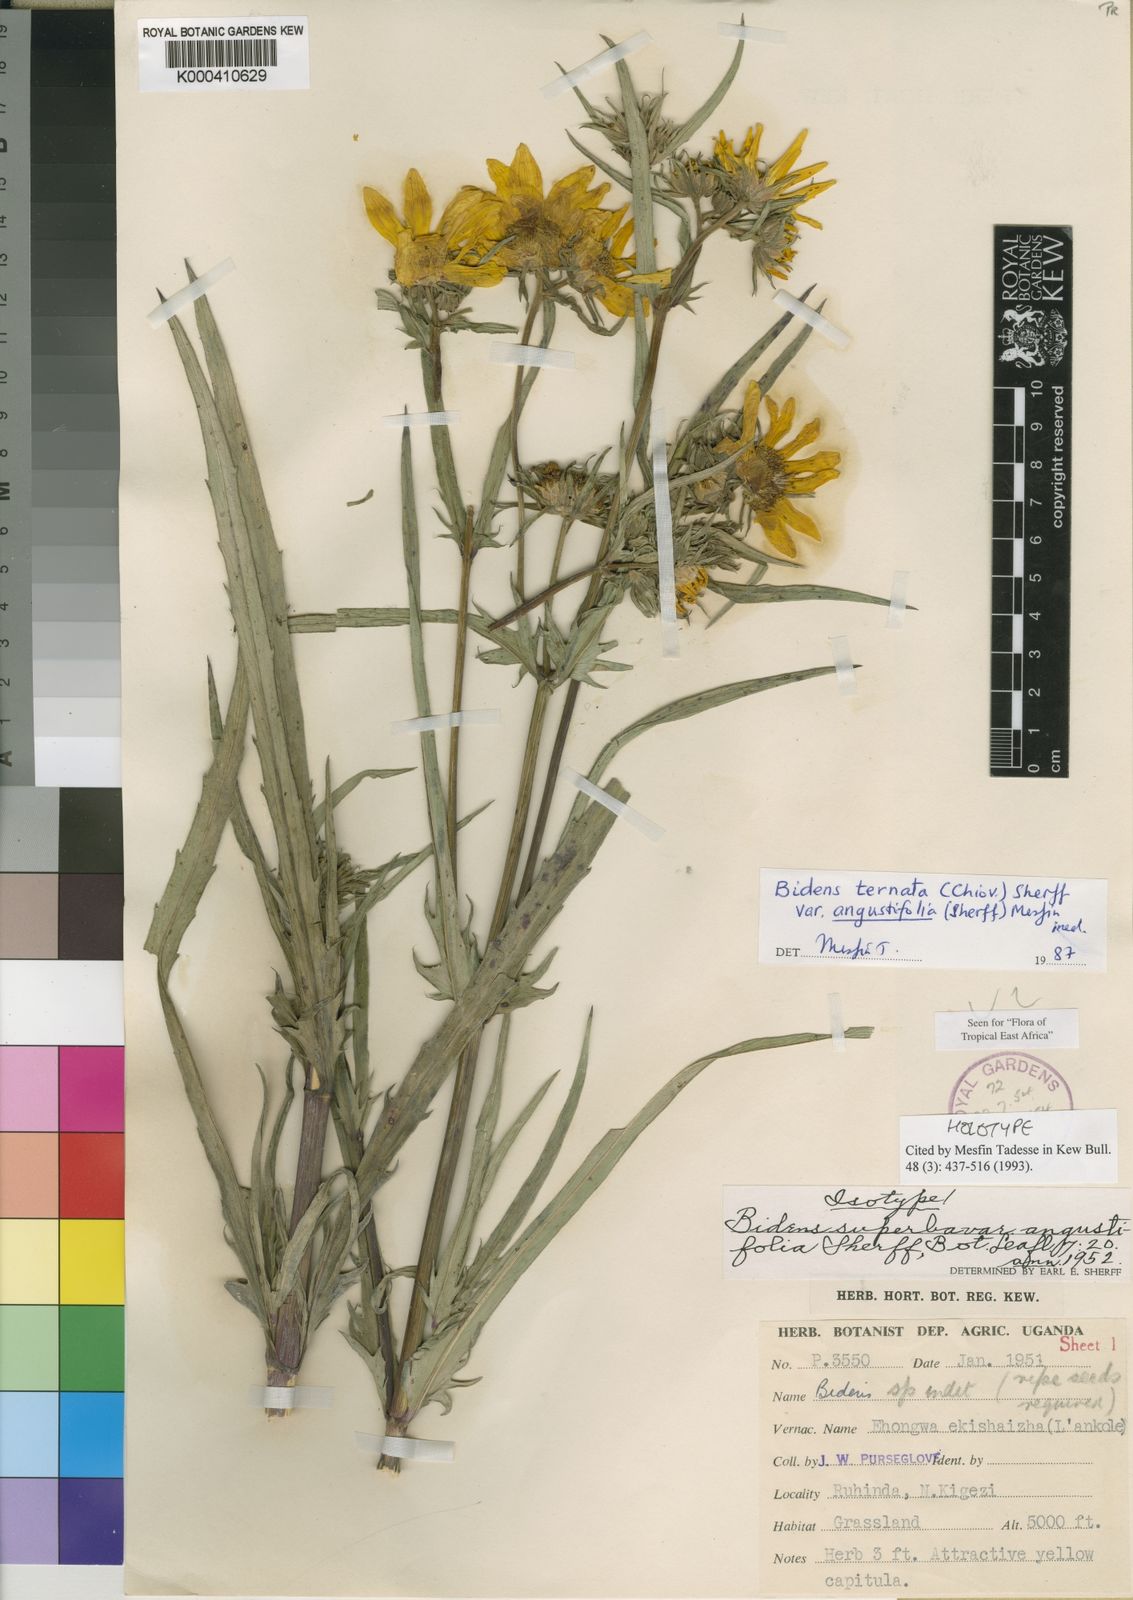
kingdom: Plantae
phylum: Tracheophyta
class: Magnoliopsida
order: Asterales
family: Asteraceae
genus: Bidens
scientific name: Bidens ternata
